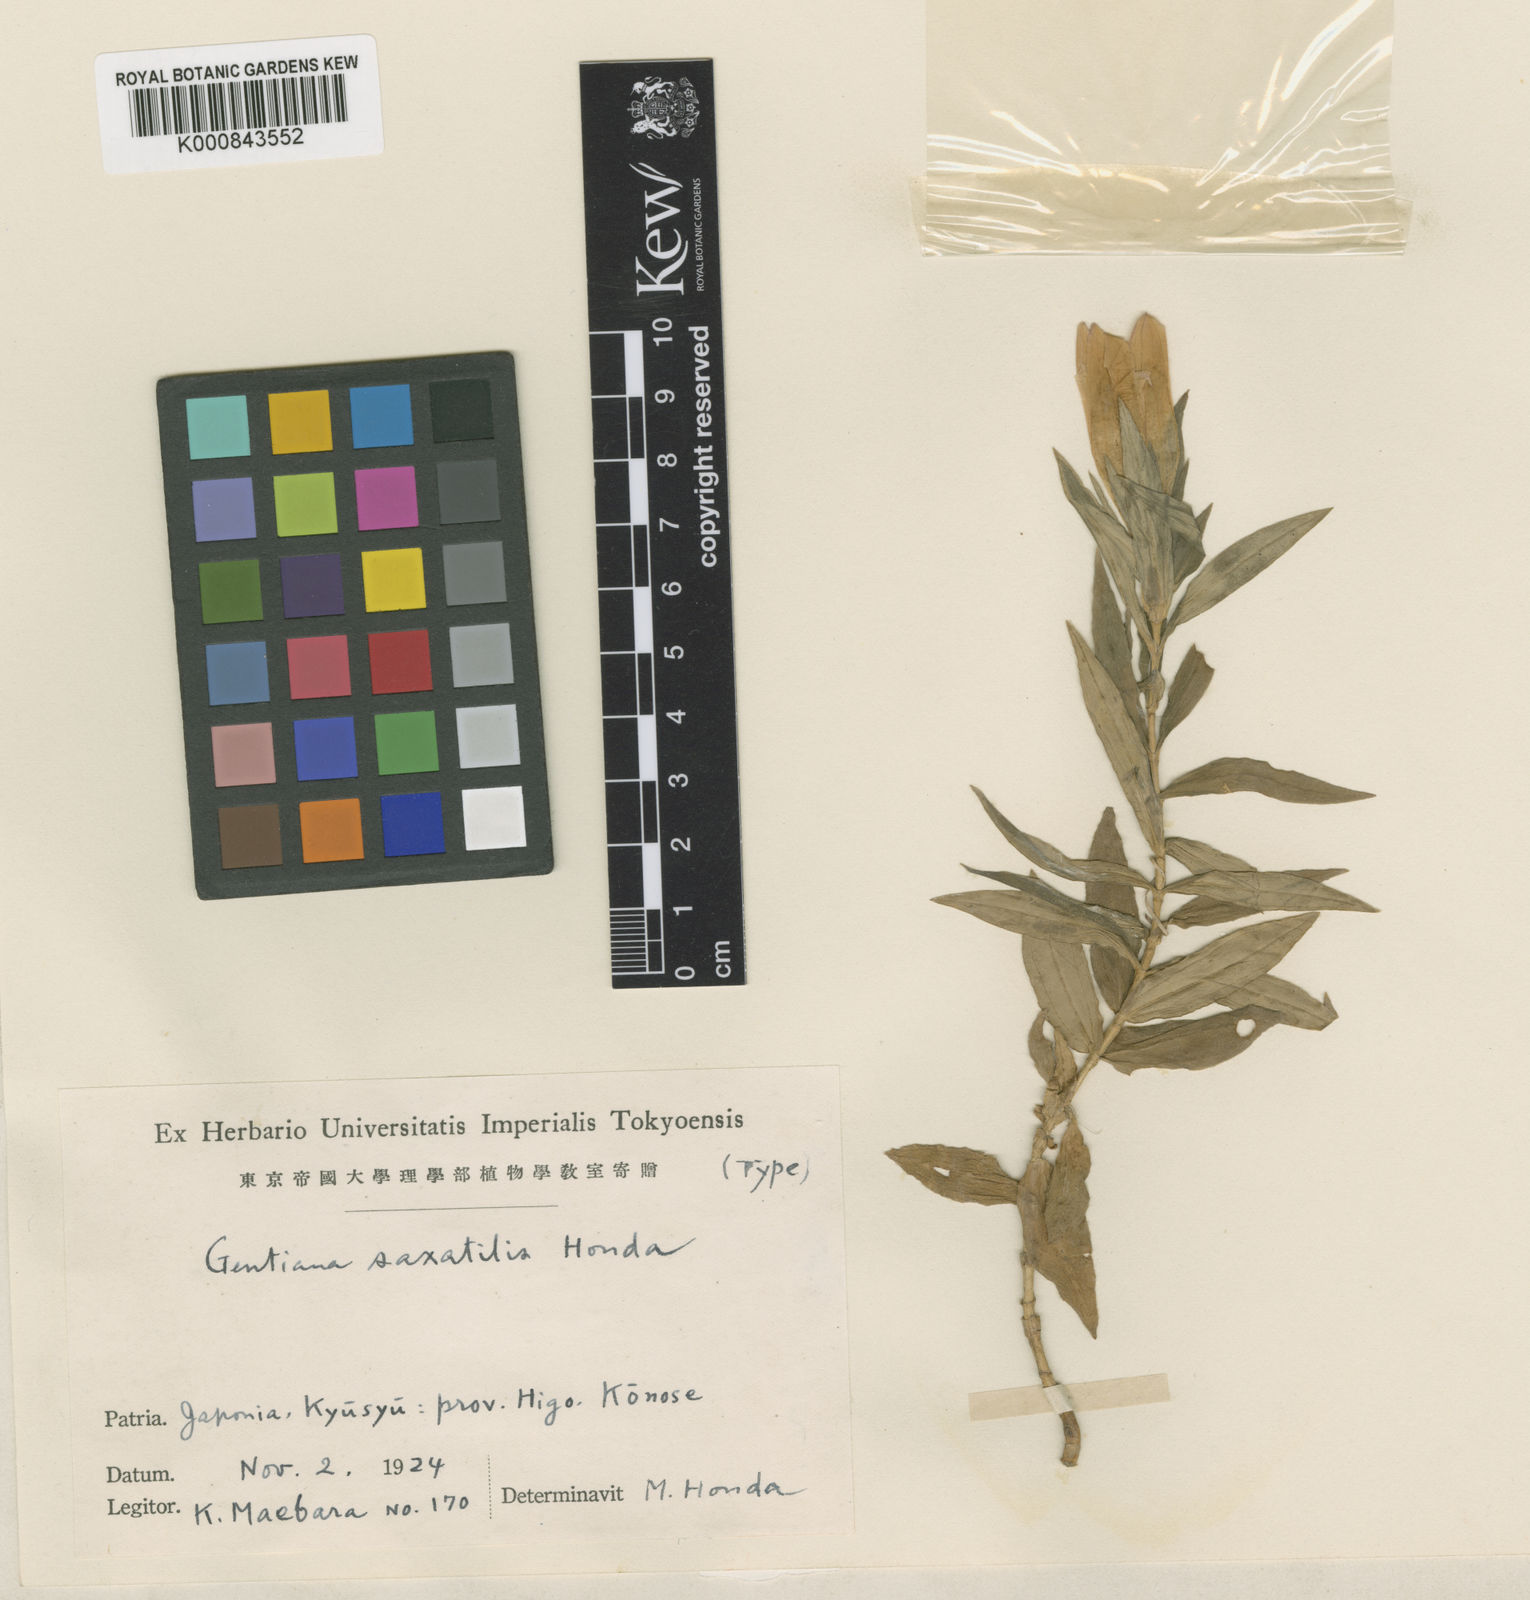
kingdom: Plantae
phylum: Tracheophyta
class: Magnoliopsida
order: Gentianales
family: Gentianaceae
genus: Gentiana
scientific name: Gentiana scabra
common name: Scabrous gentian
